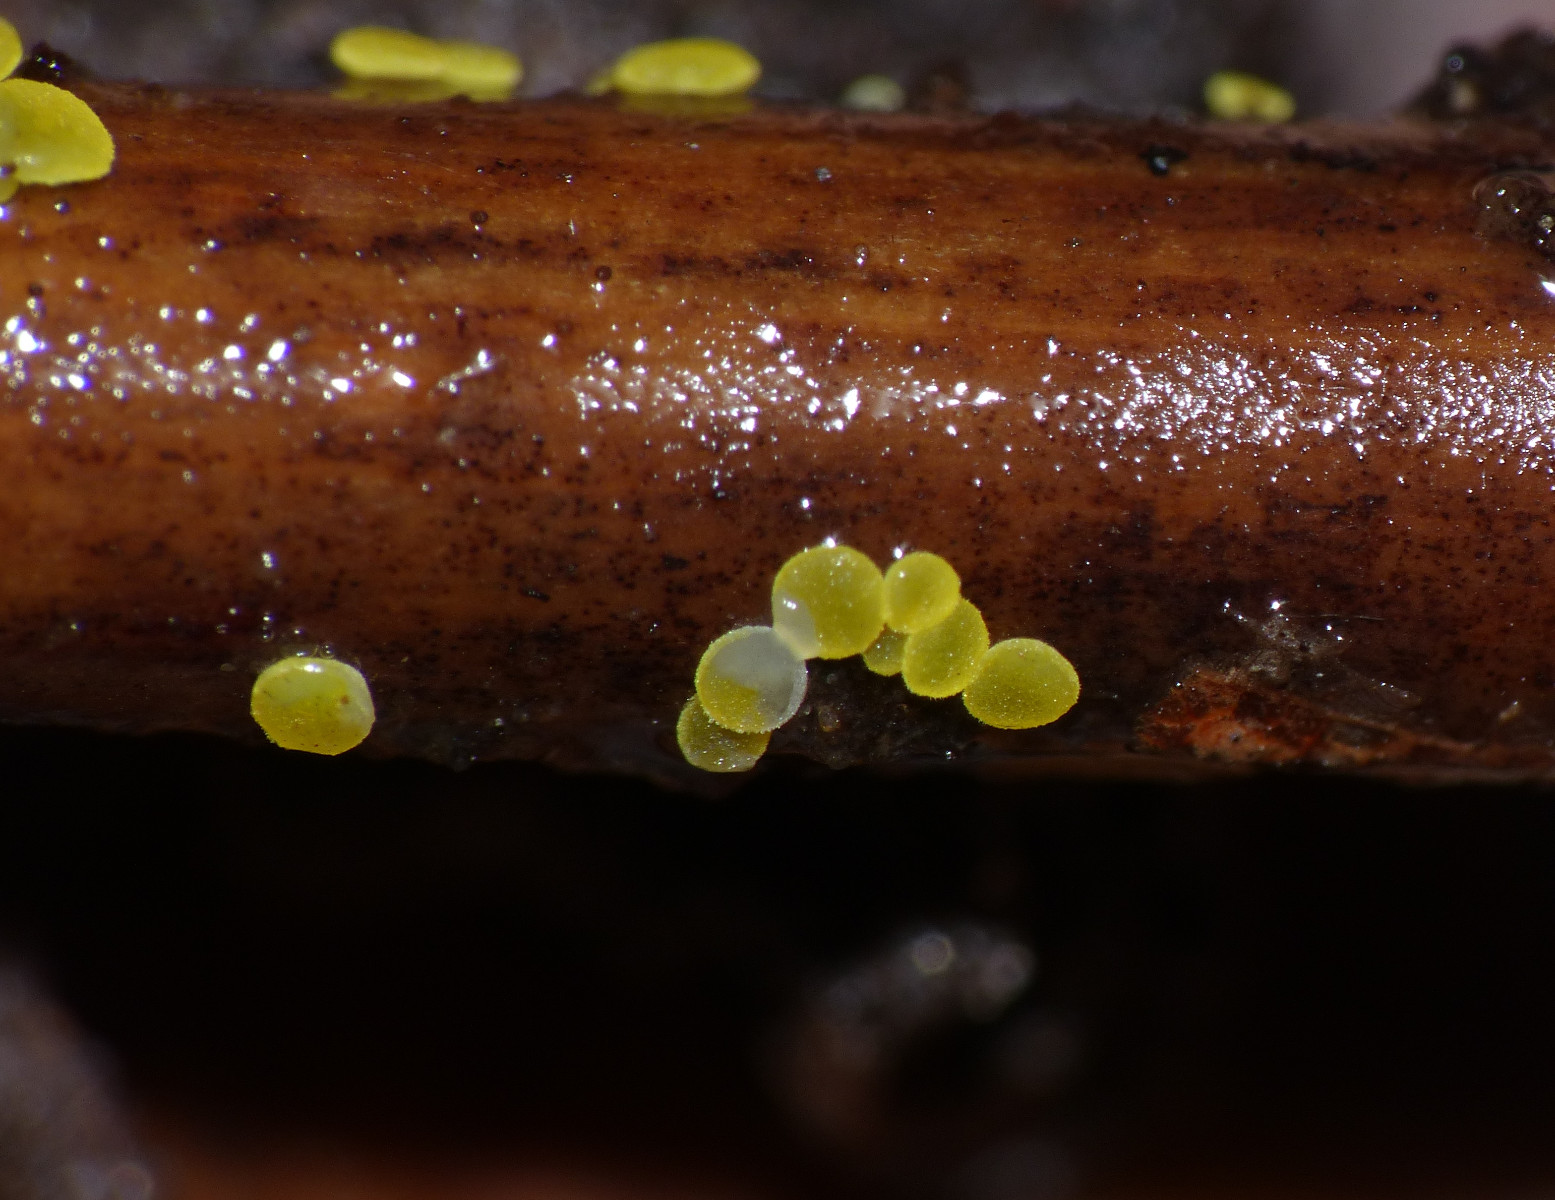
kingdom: Fungi
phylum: Ascomycota
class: Leotiomycetes
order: Helotiales
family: Pezizellaceae
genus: Calycina
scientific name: Calycina scolochloae
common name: bambus-gulskive
